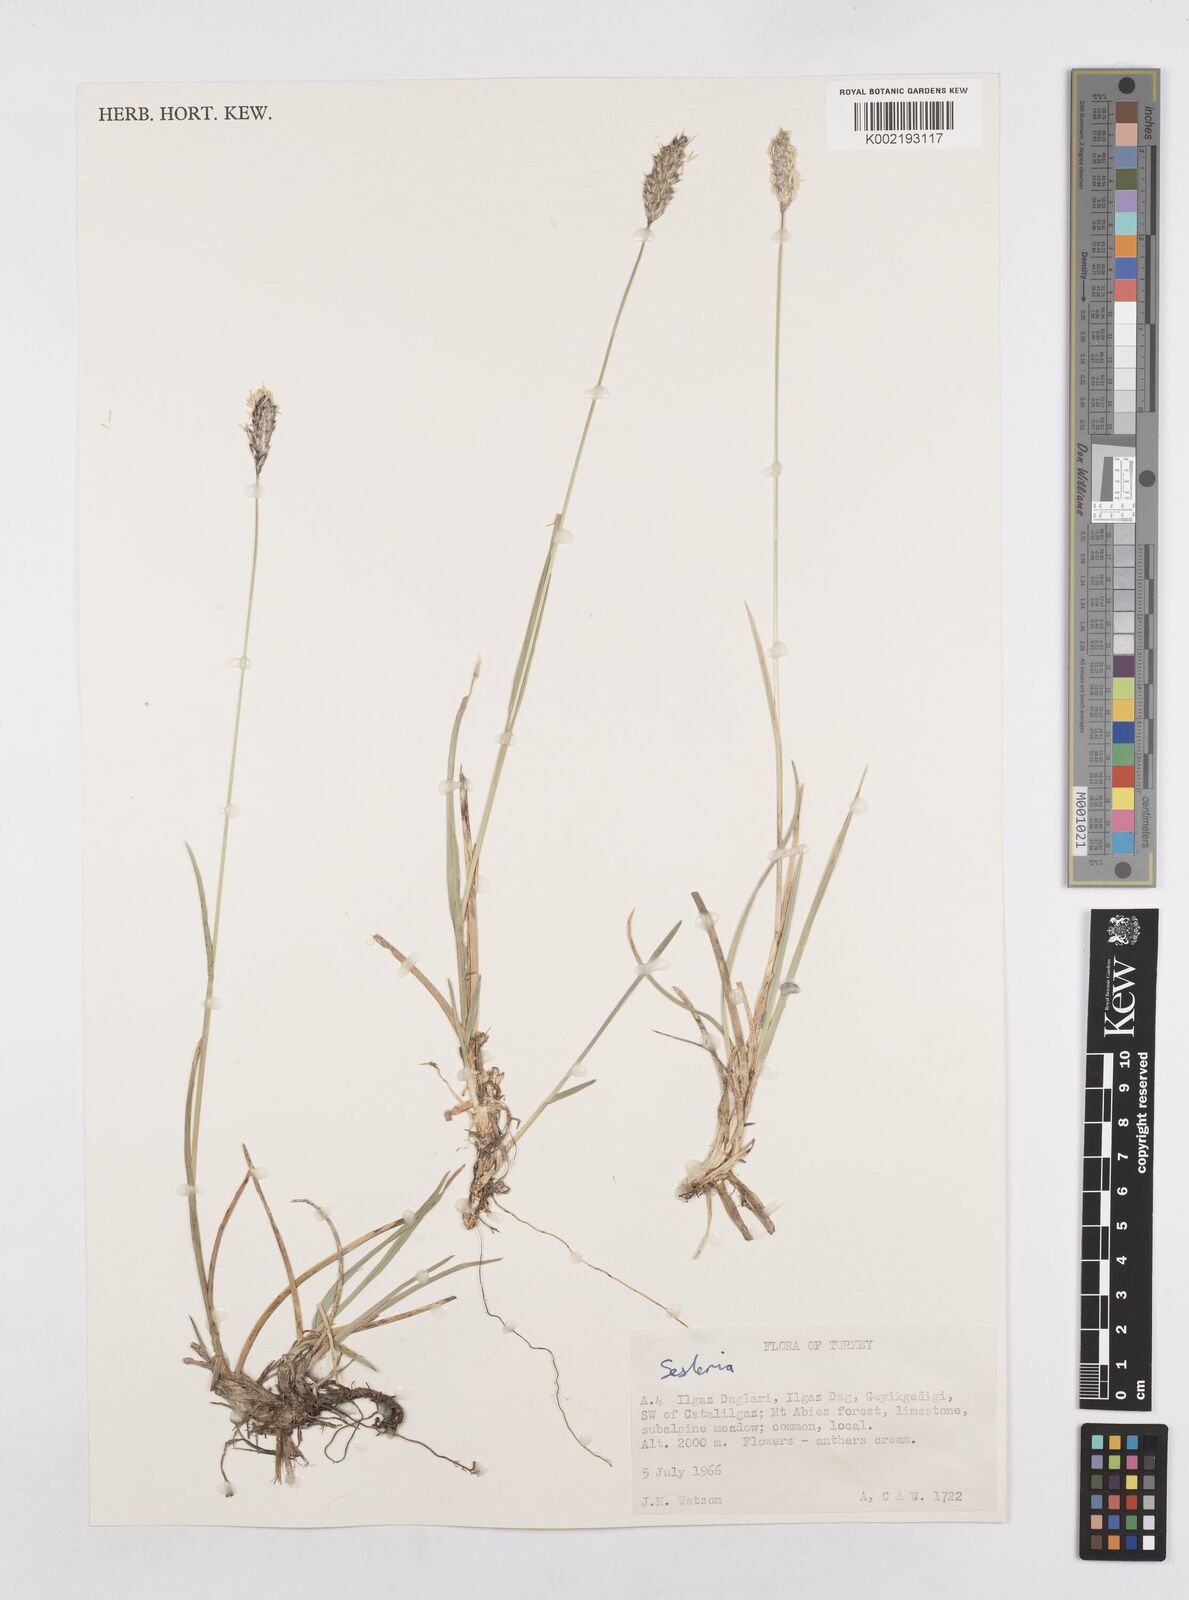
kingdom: Plantae
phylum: Tracheophyta
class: Liliopsida
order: Poales
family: Poaceae
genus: Sesleria
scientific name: Sesleria argentea
